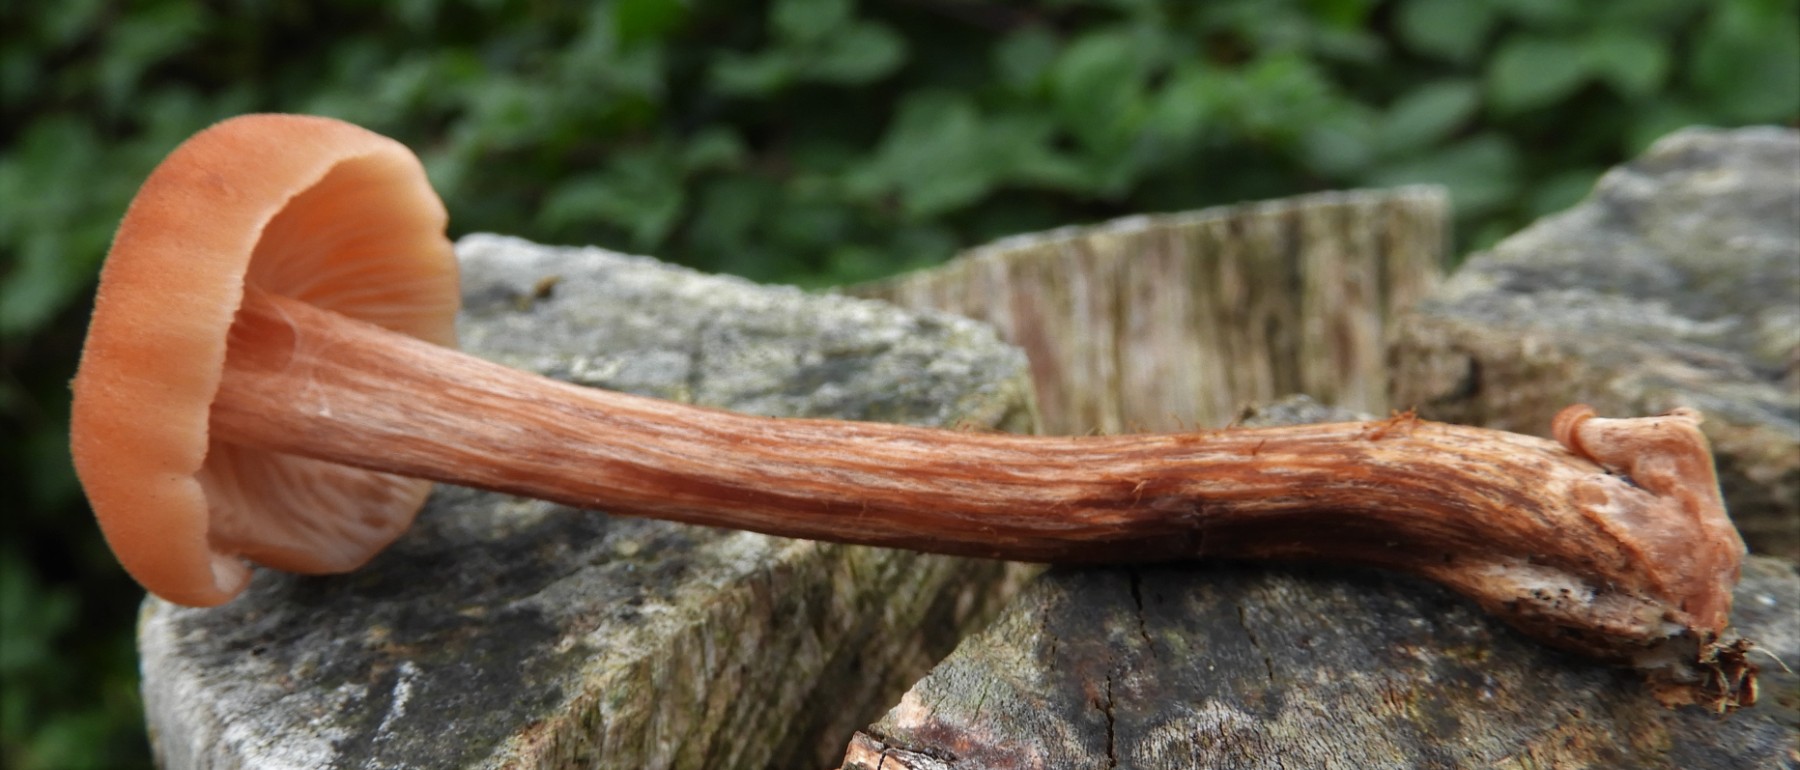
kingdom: Fungi
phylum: Basidiomycota
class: Agaricomycetes
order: Agaricales
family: Hydnangiaceae
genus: Laccaria
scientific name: Laccaria proxima
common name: stor ametysthat
